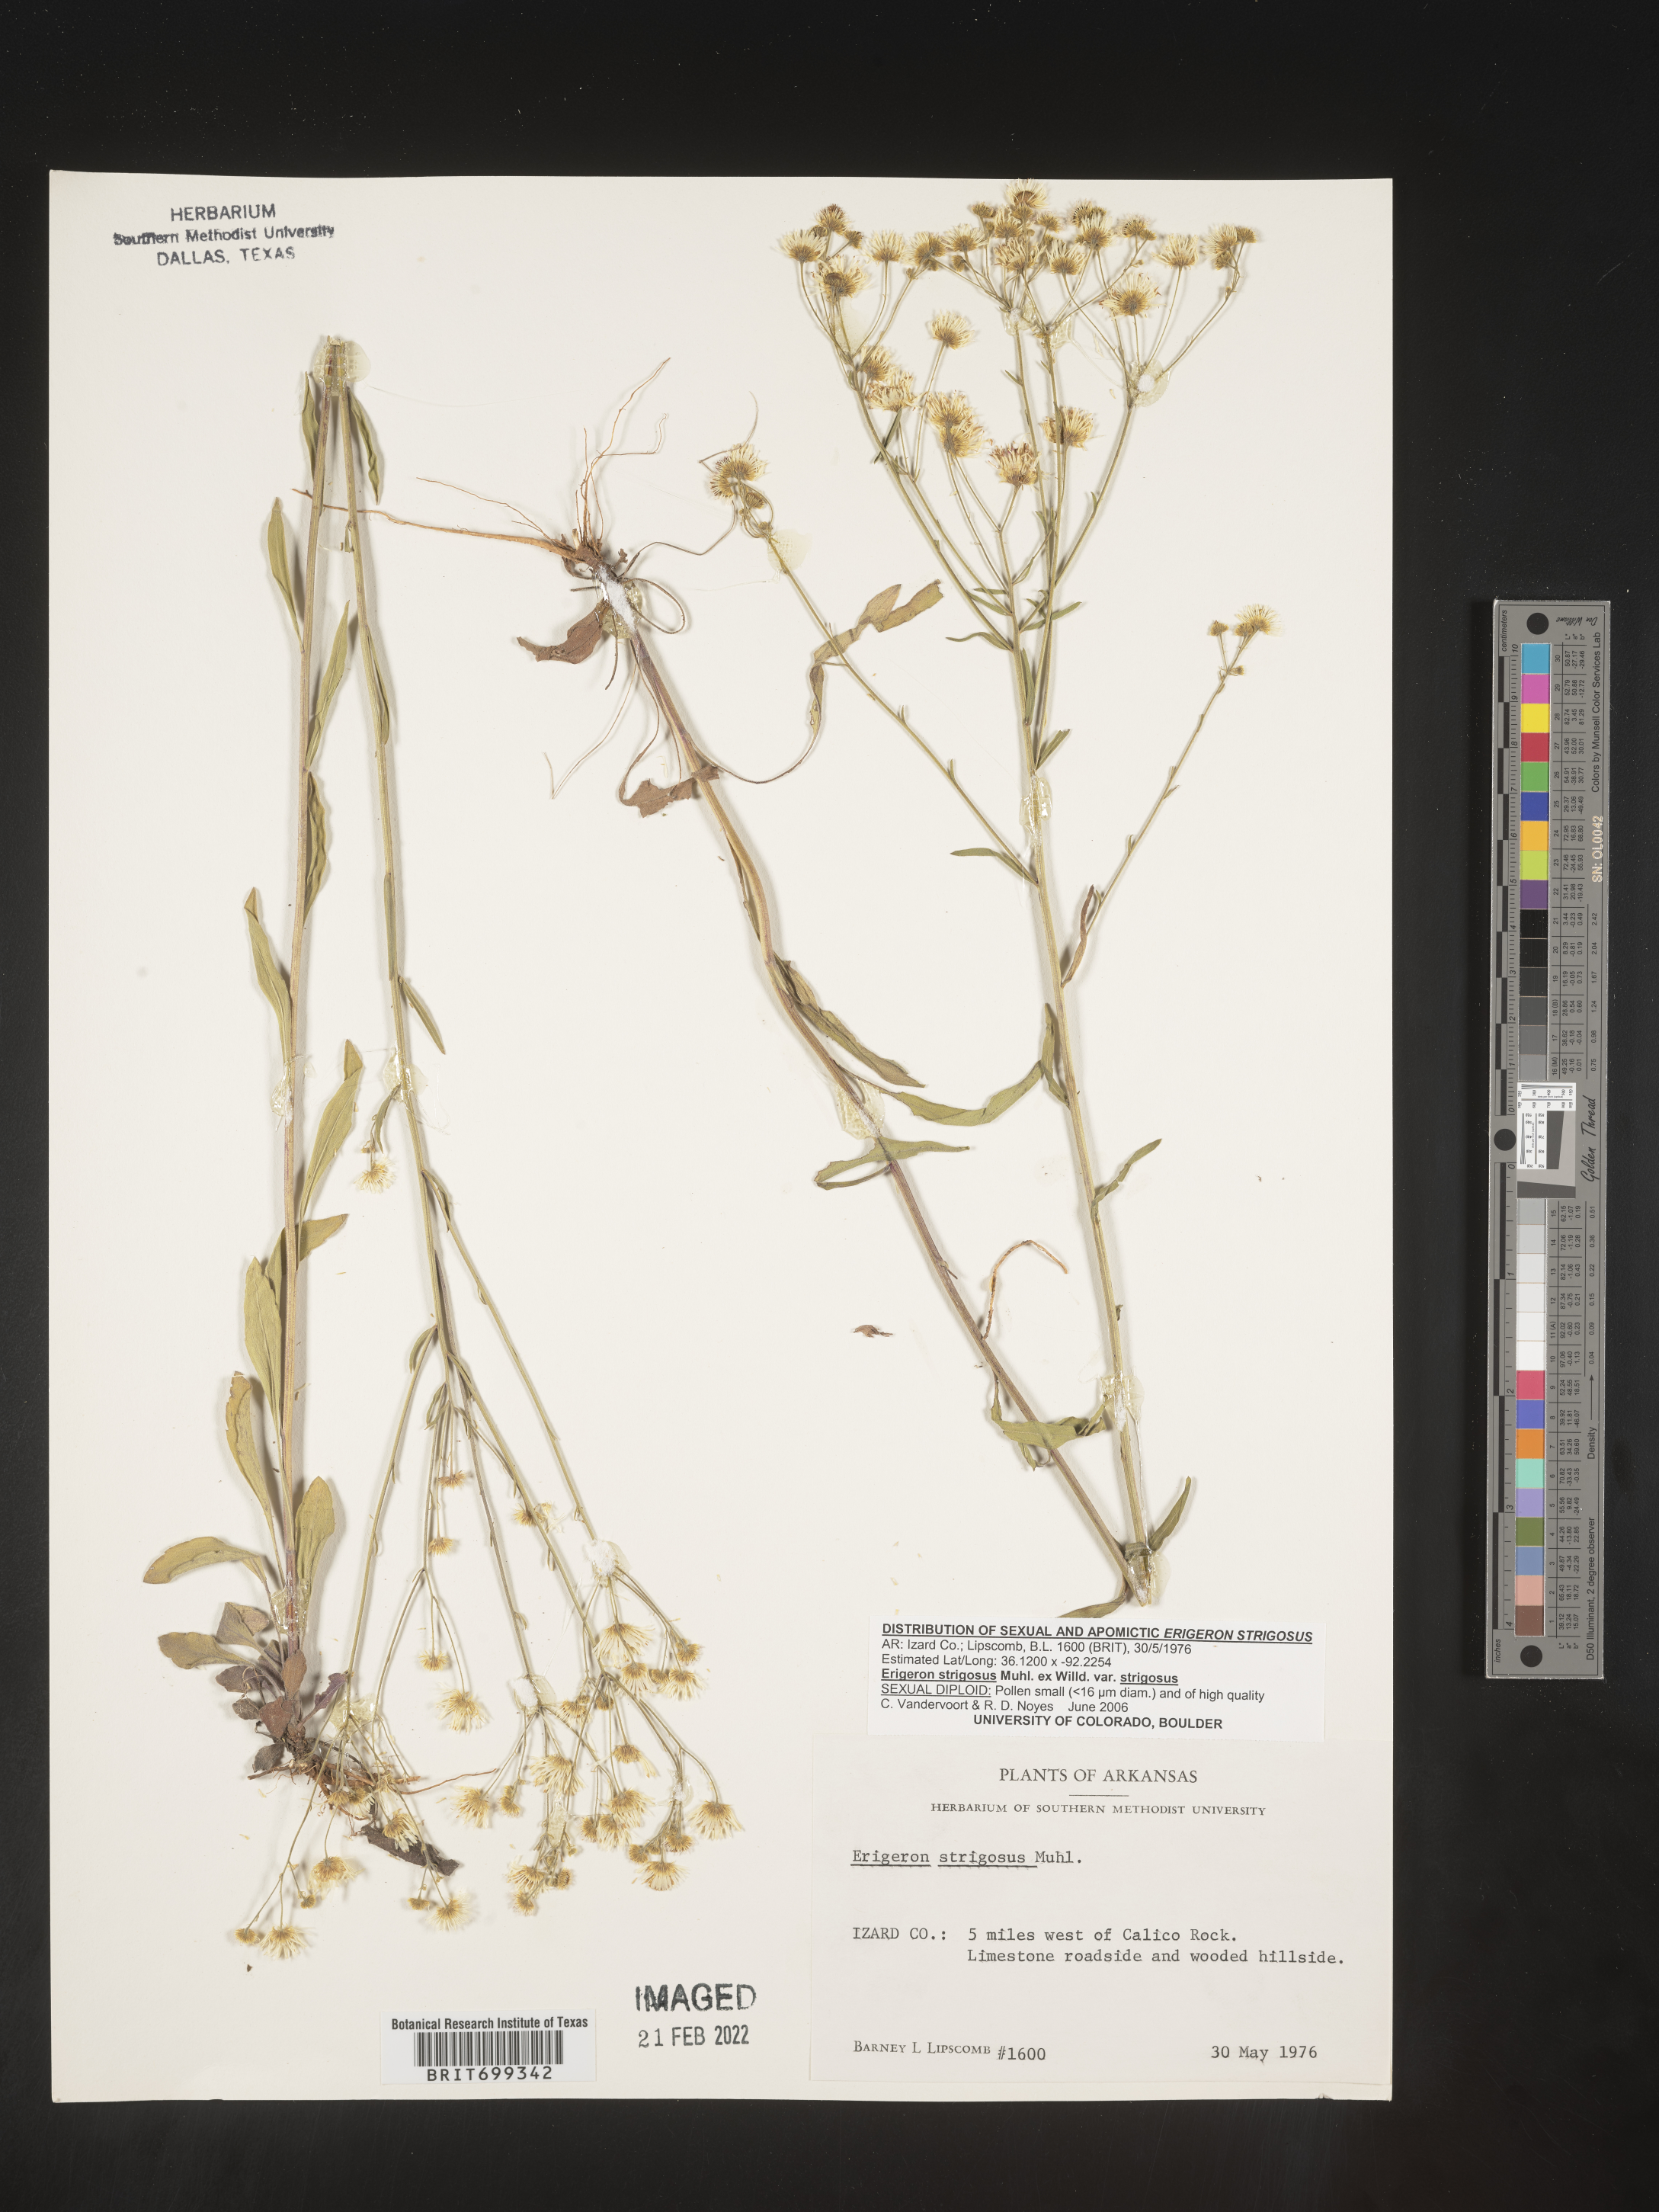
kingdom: Plantae
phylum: Tracheophyta
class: Magnoliopsida
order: Asterales
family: Asteraceae
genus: Erigeron
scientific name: Erigeron strigosus
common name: Common eastern fleabane
